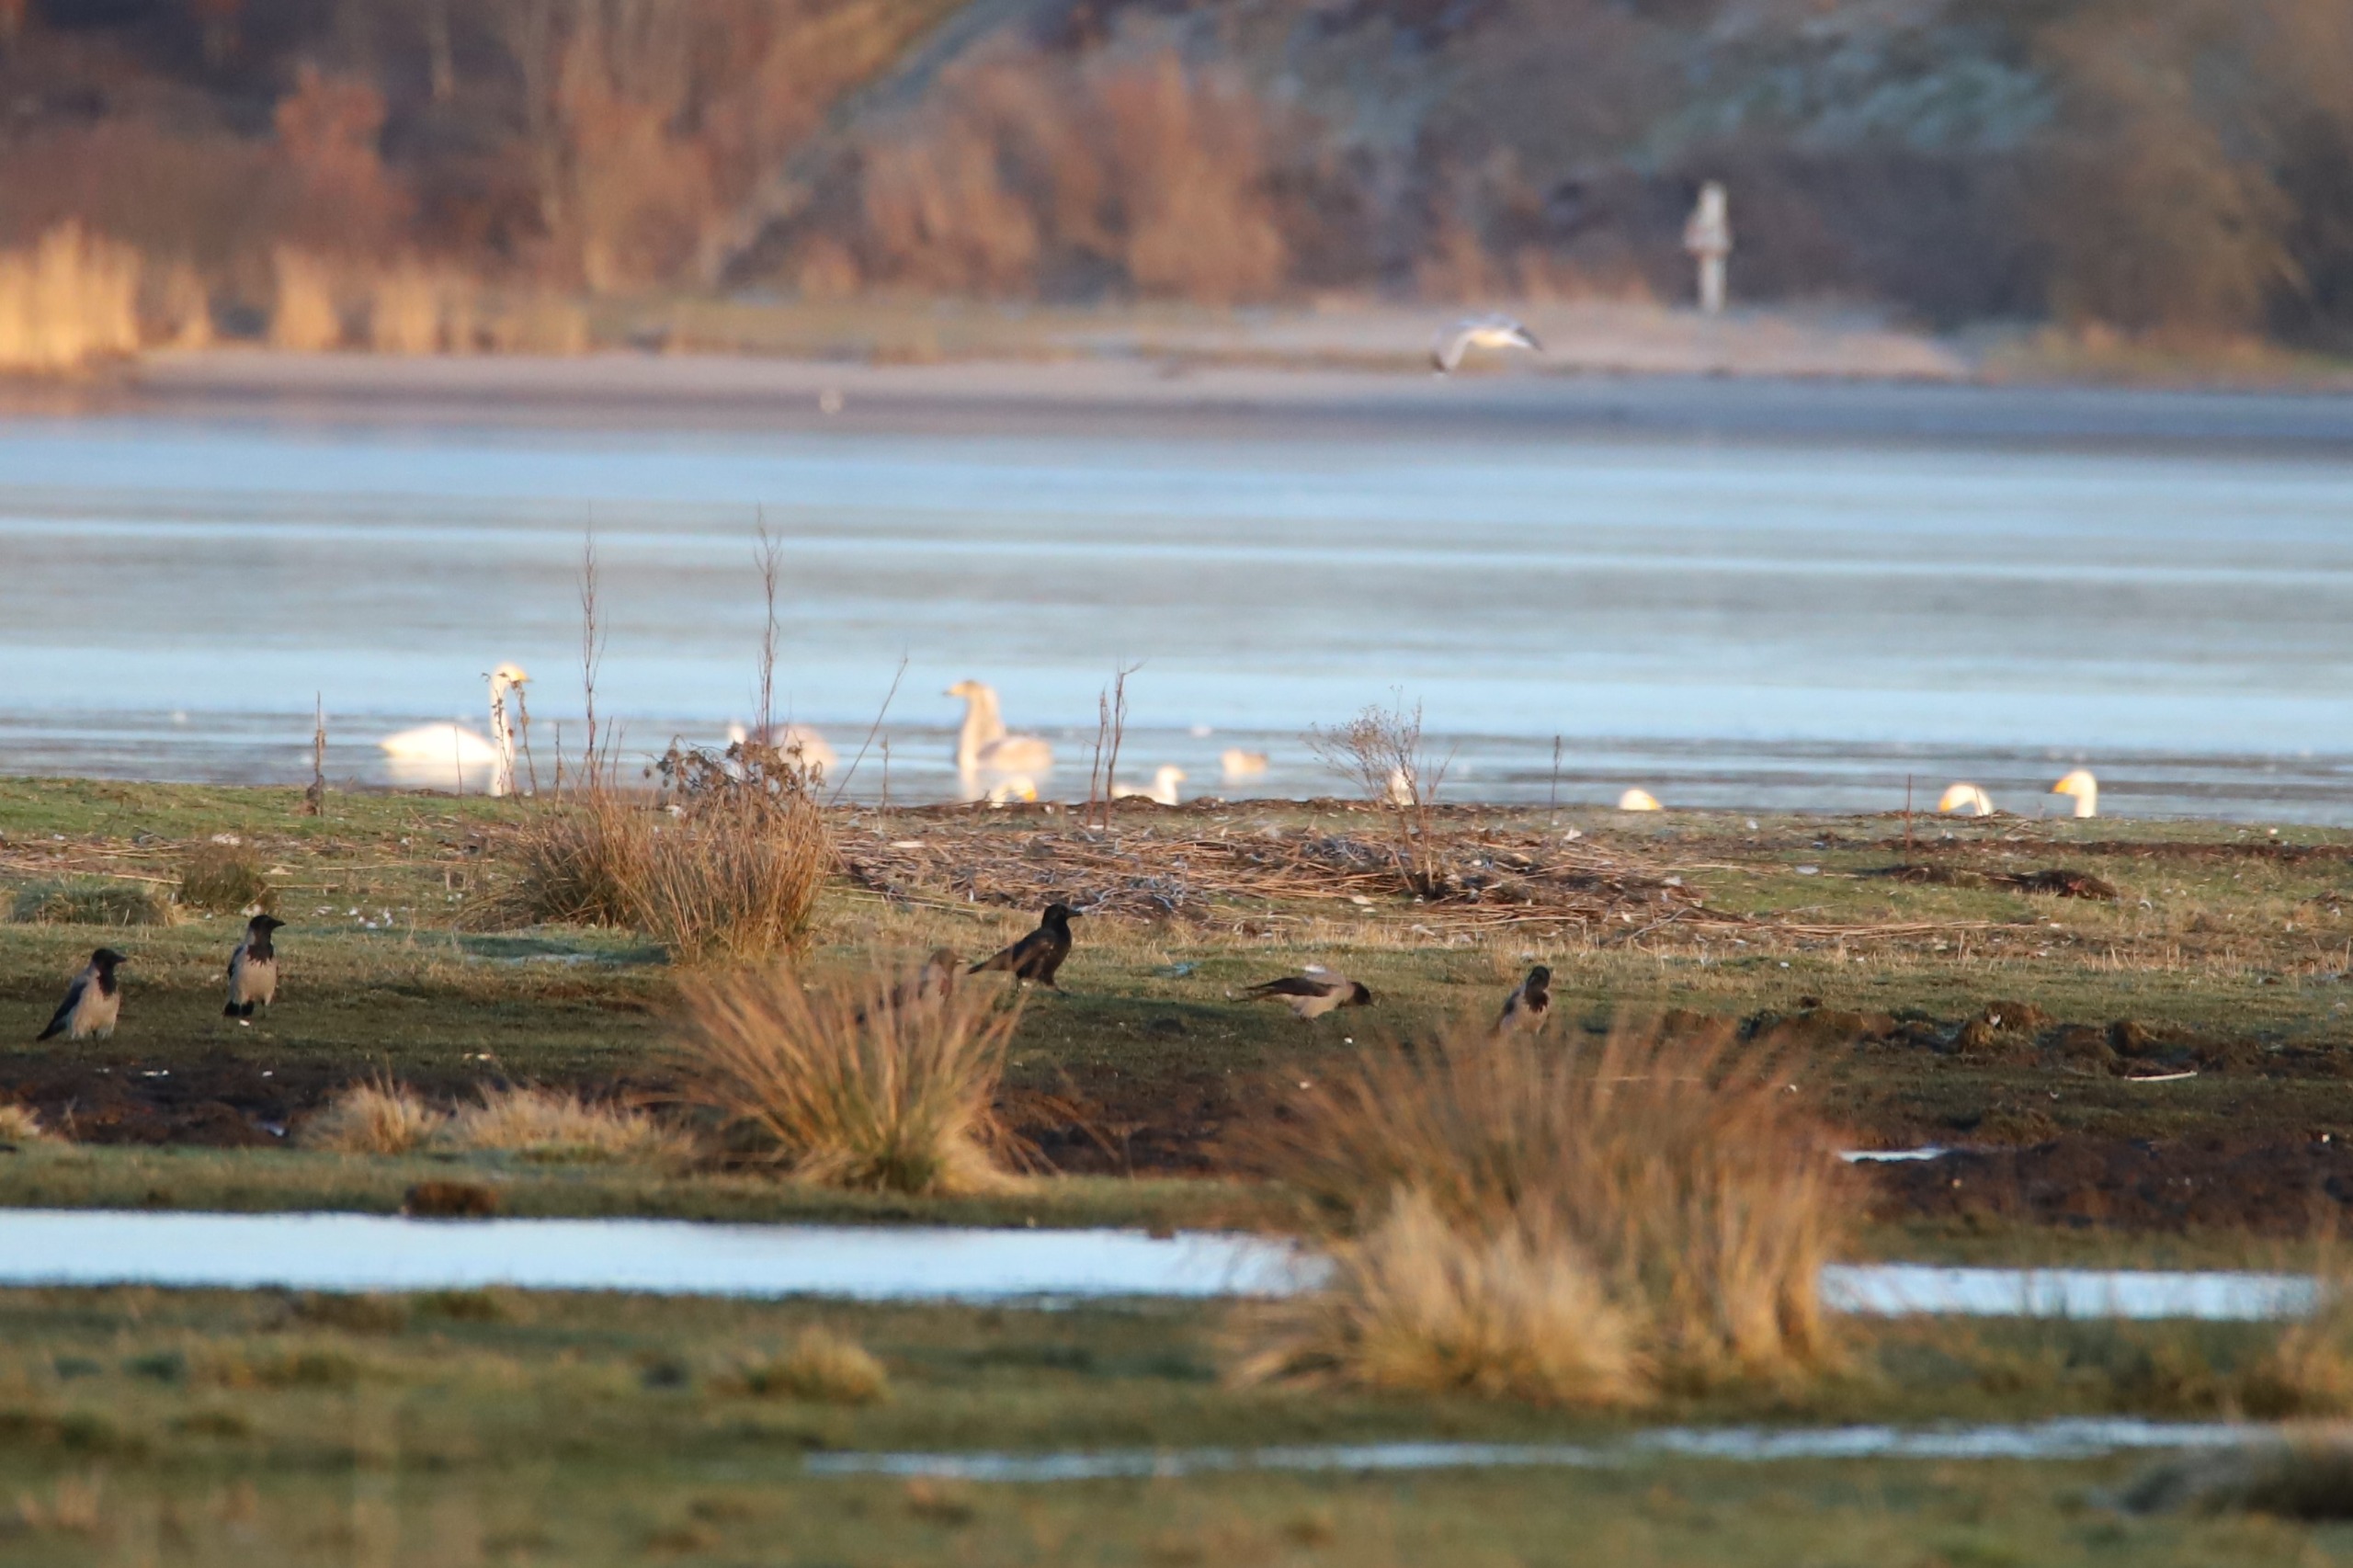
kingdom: Animalia
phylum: Chordata
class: Aves
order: Passeriformes
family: Corvidae
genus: Corvus
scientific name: Corvus corone
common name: Sortkrage
